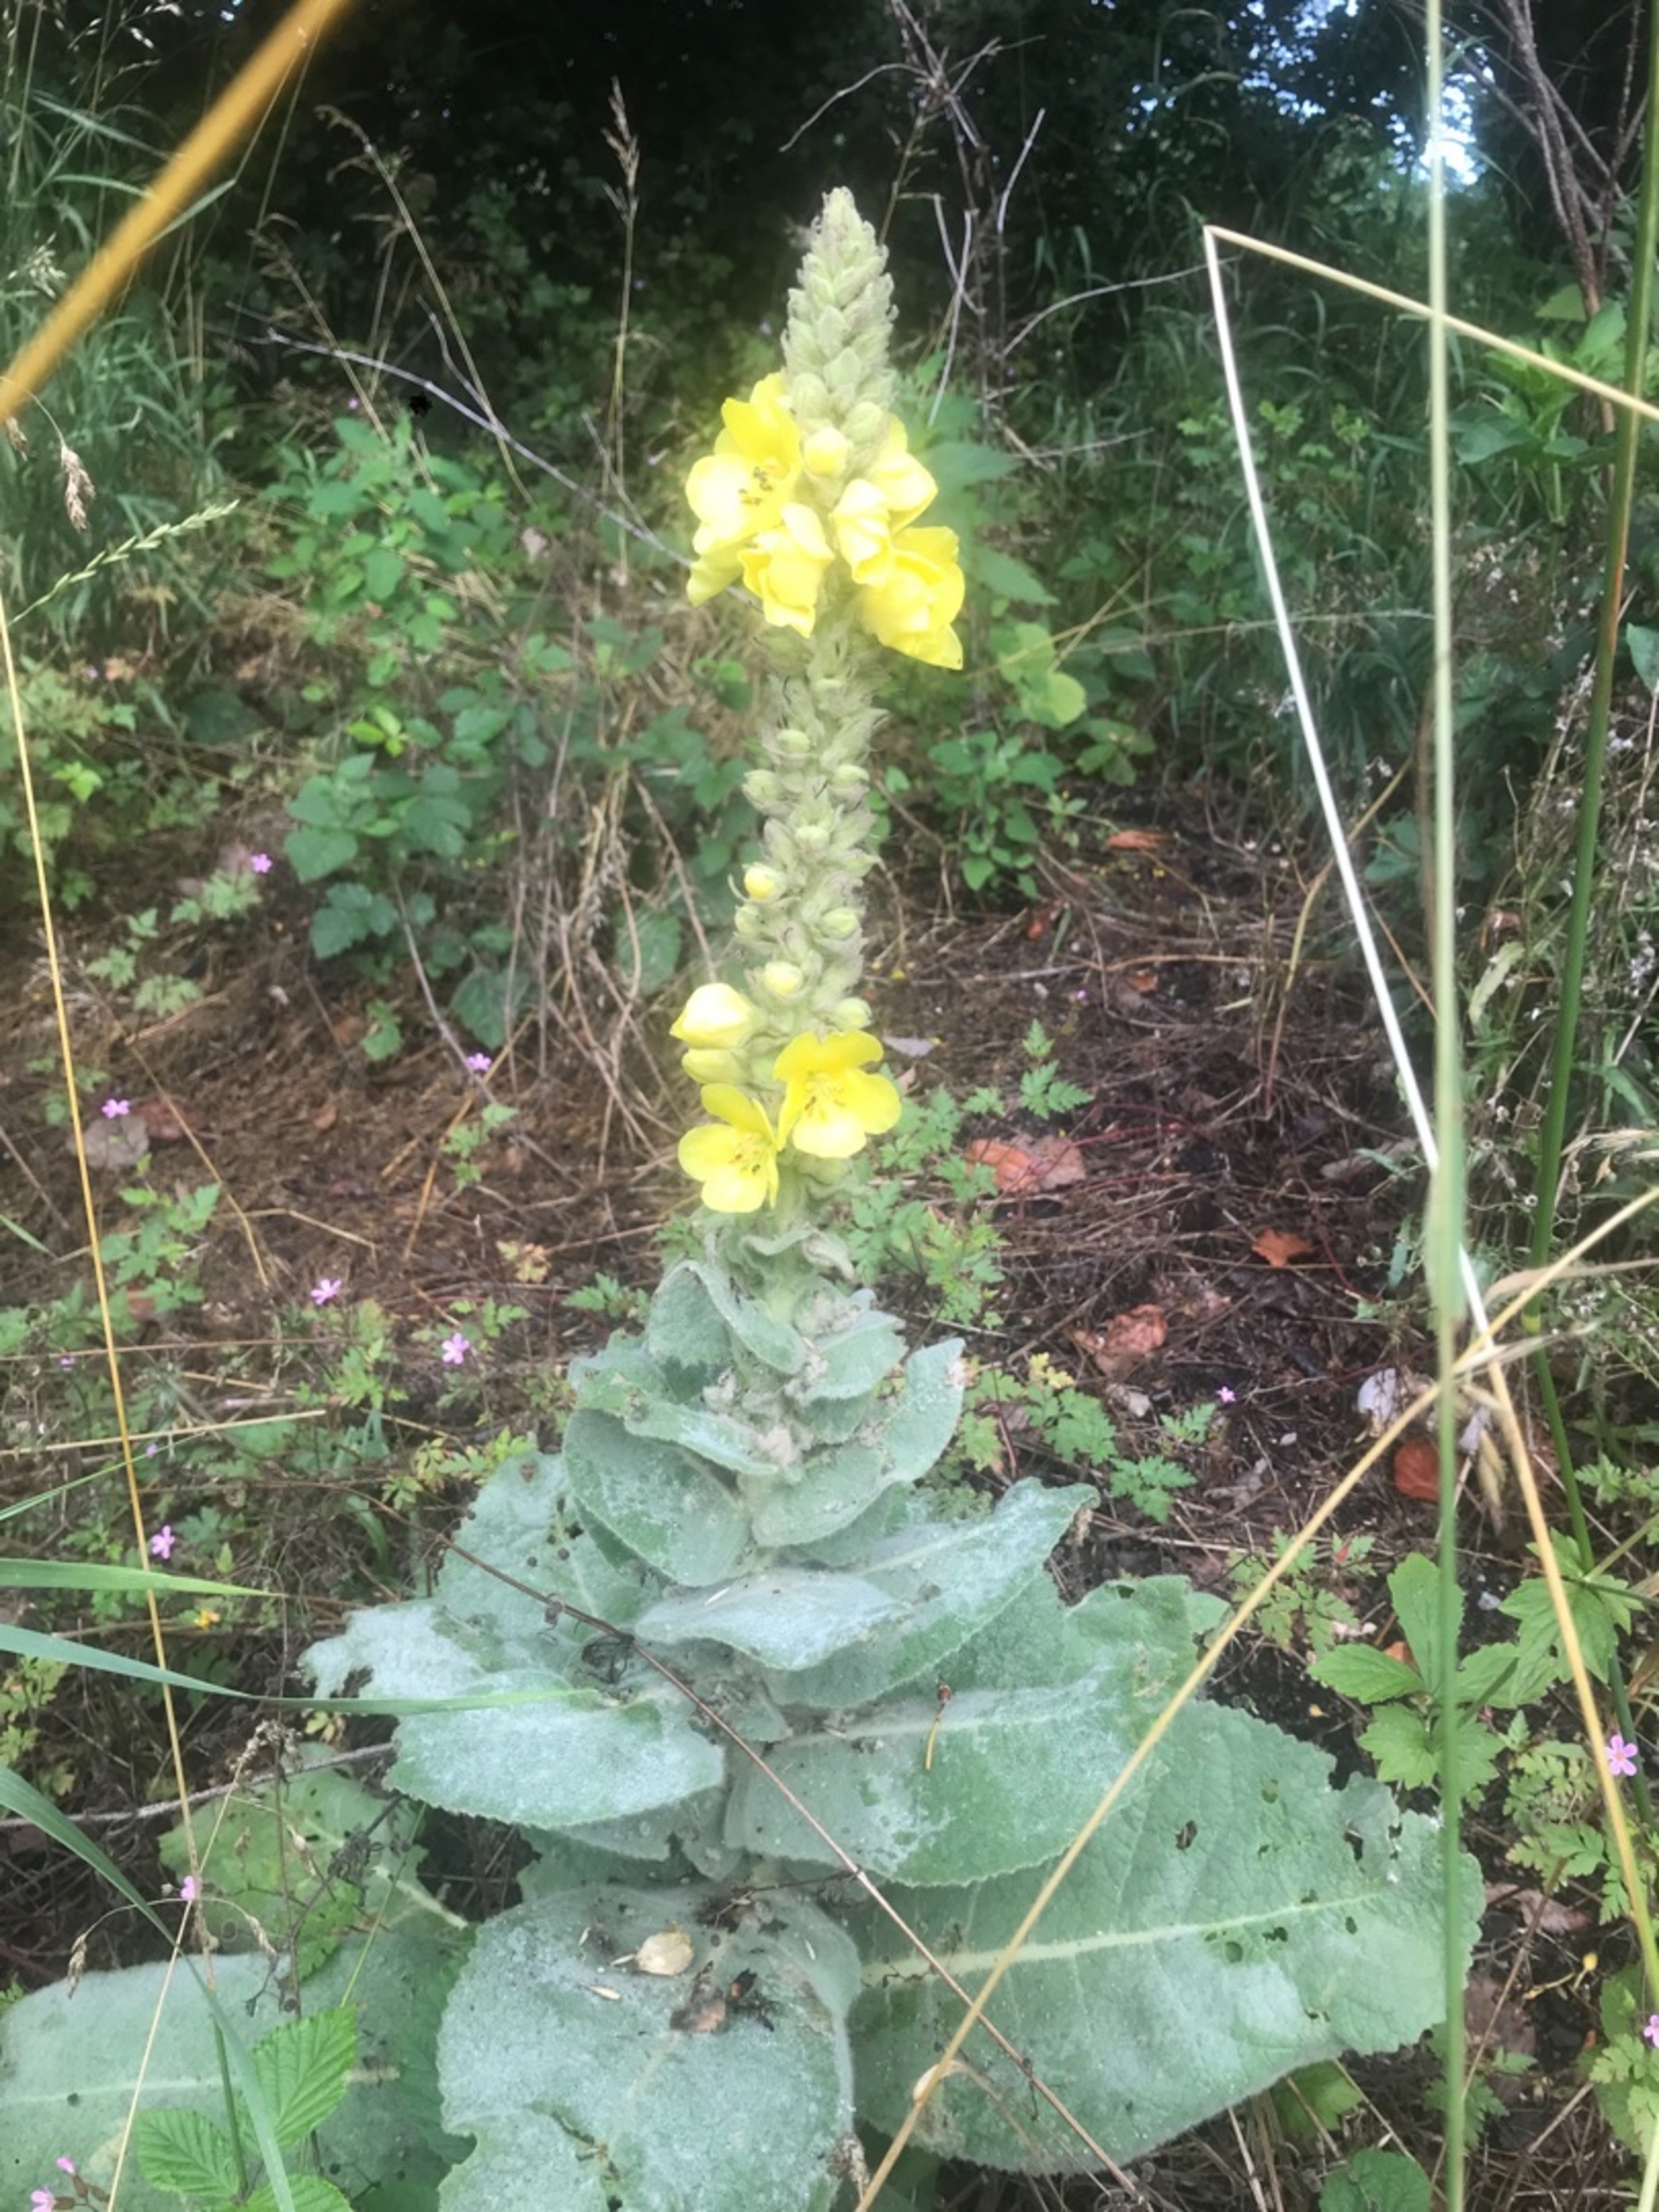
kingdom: Plantae
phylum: Tracheophyta
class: Magnoliopsida
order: Lamiales
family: Scrophulariaceae
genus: Verbascum
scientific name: Verbascum densiflorum
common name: Uldbladet kongelys
